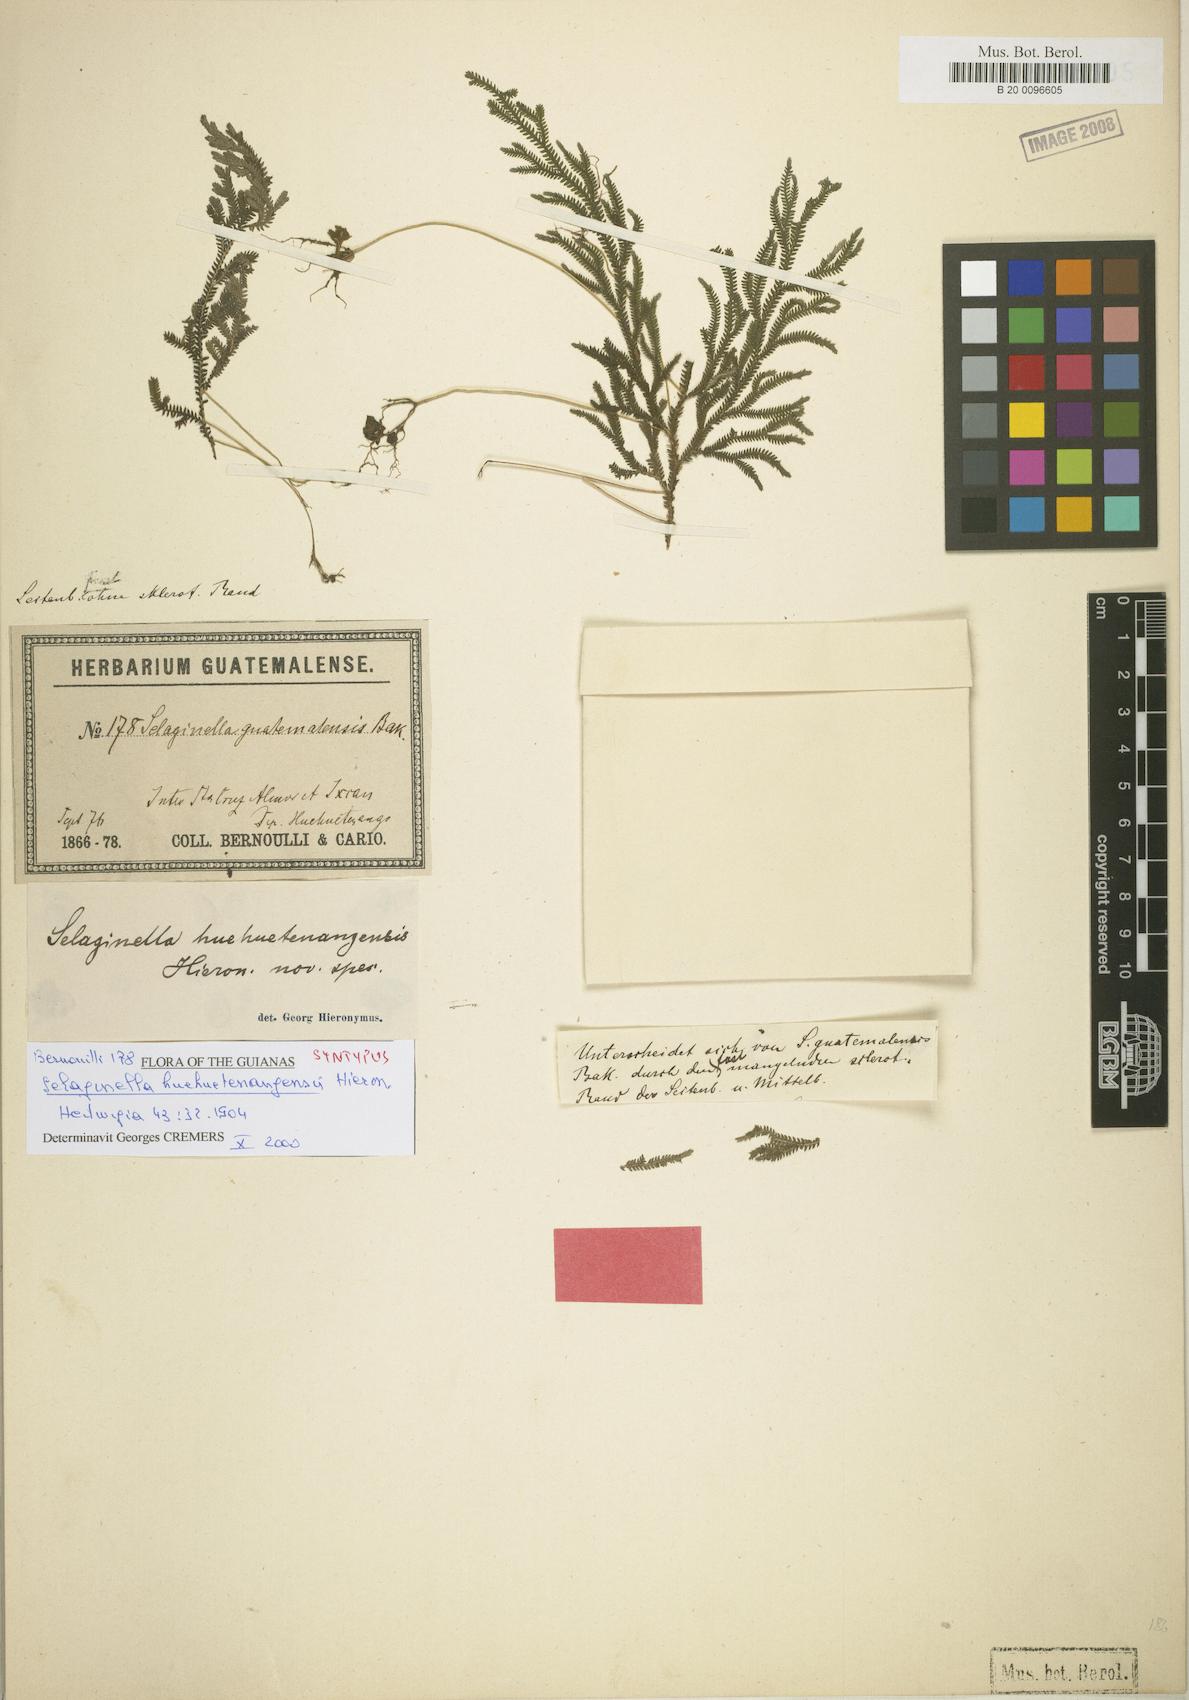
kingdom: Plantae
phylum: Tracheophyta
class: Lycopodiopsida
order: Selaginellales
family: Selaginellaceae
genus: Selaginella
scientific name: Selaginella huehuetenangensis
